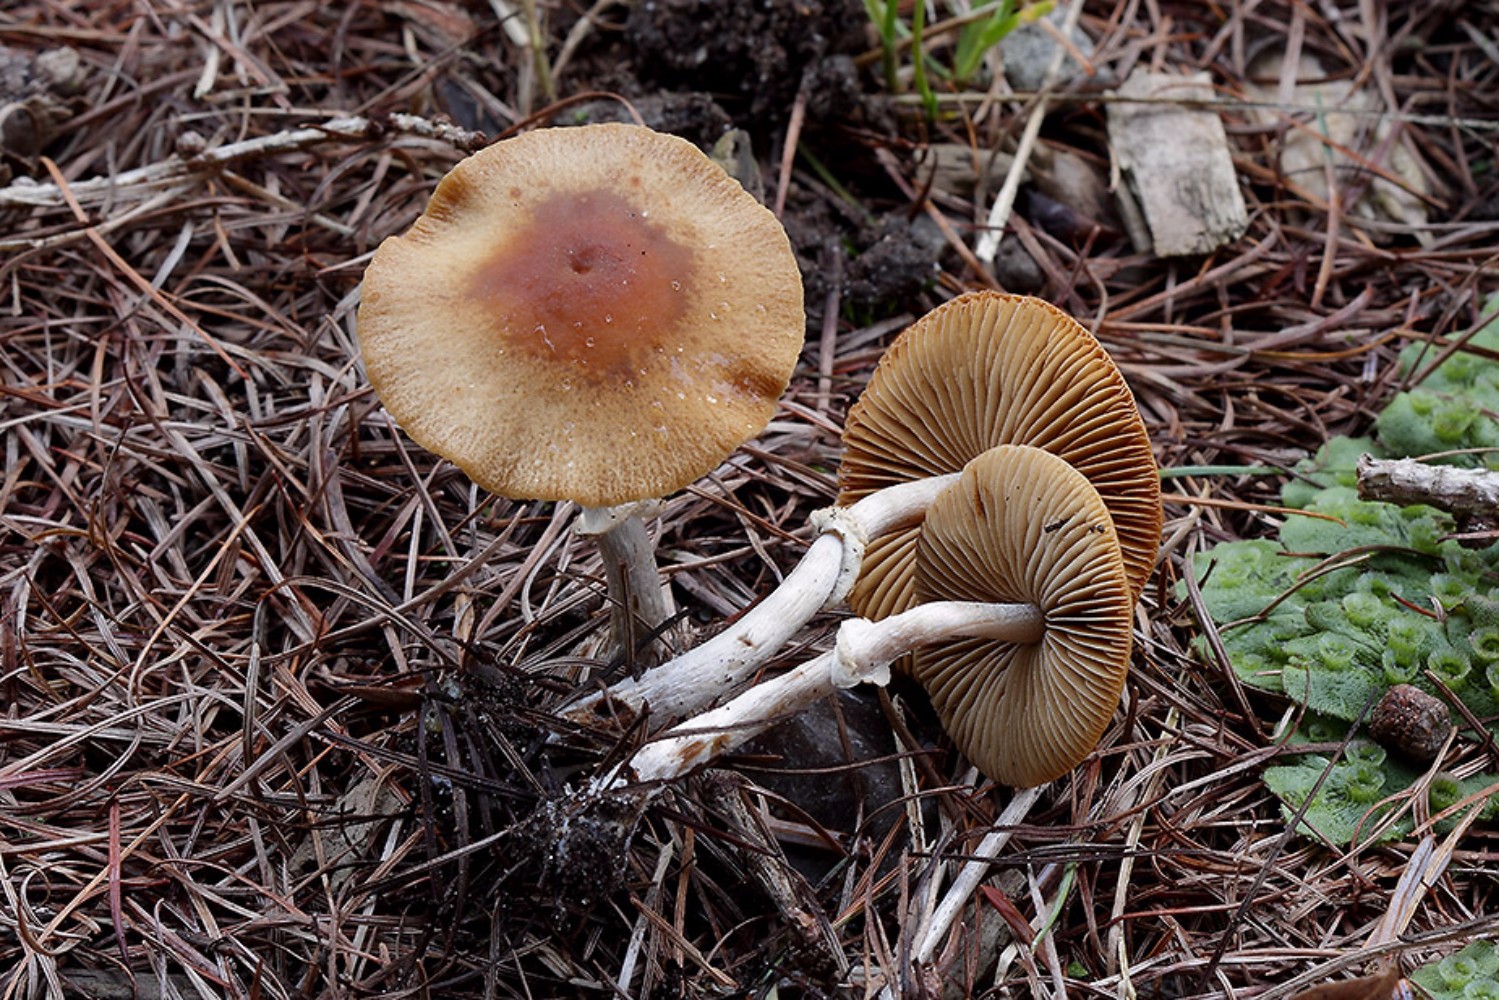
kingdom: Fungi
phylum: Basidiomycota
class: Agaricomycetes
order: Agaricales
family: Bolbitiaceae
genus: Conocybe
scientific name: Conocybe arrhenii
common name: ring-dansehat
